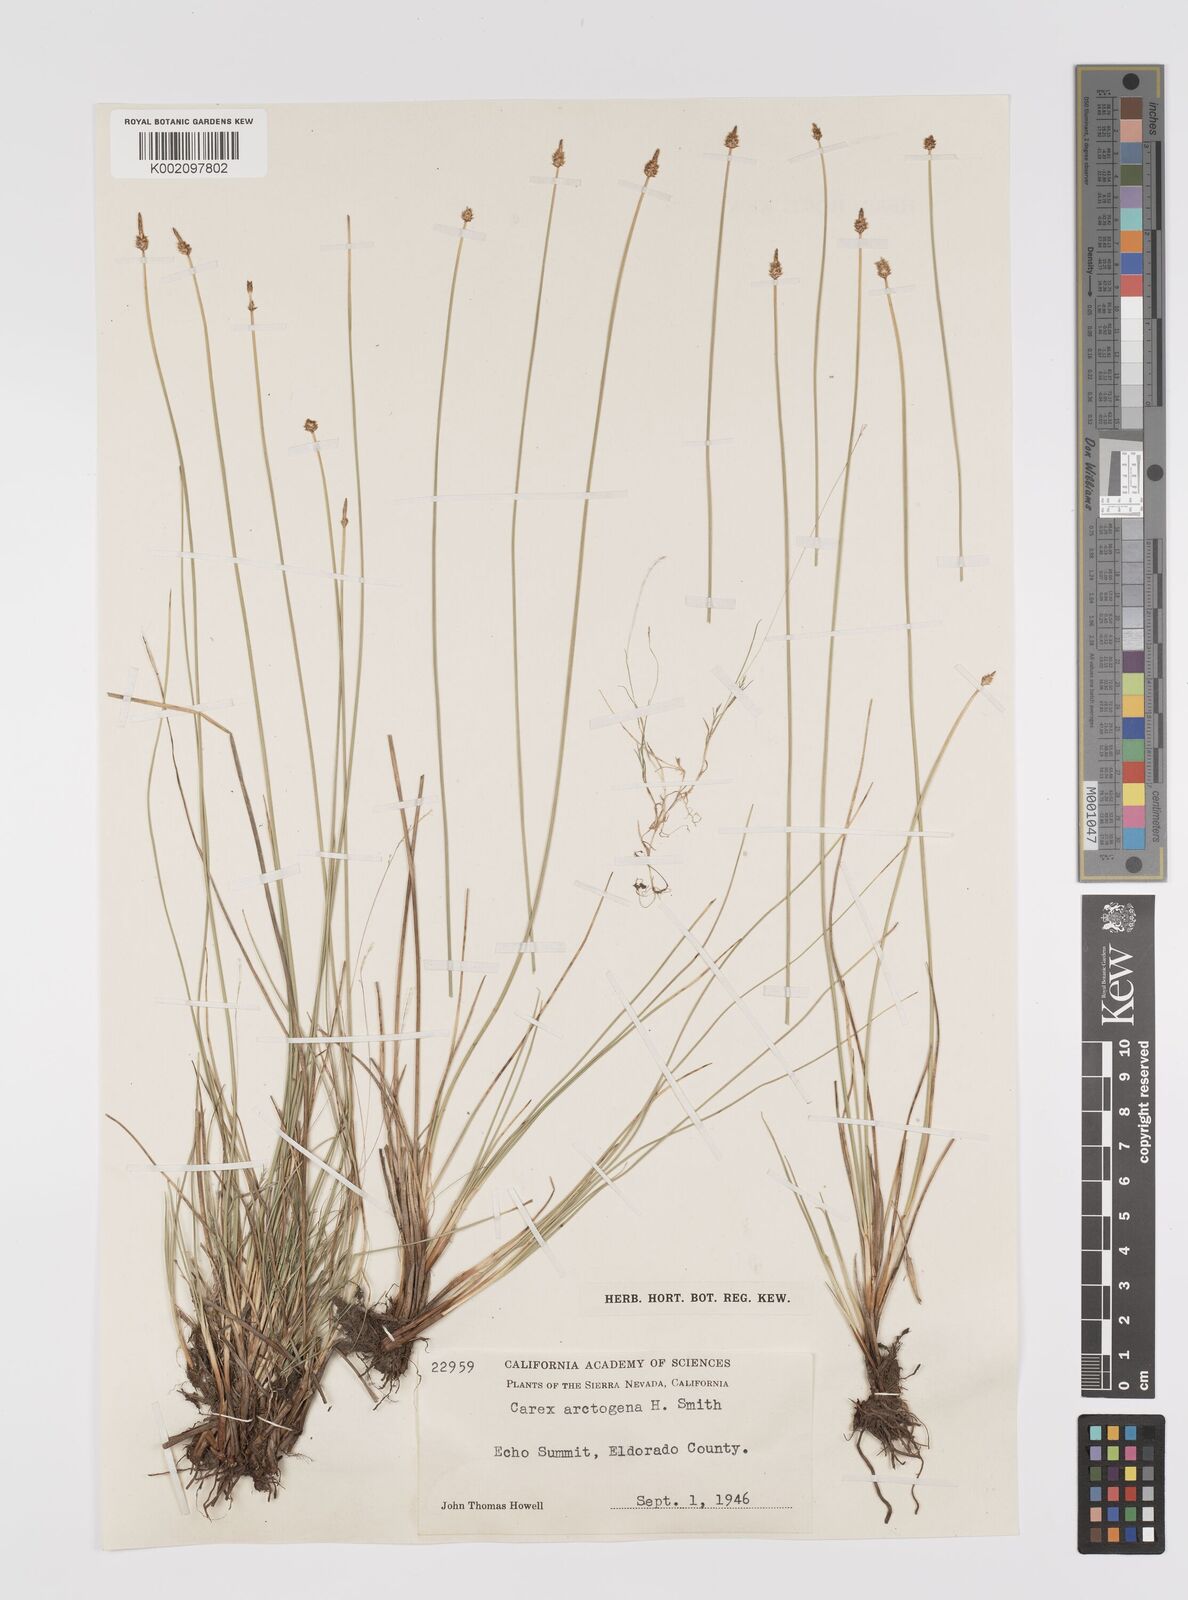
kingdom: Plantae
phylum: Tracheophyta
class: Liliopsida
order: Poales
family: Cyperaceae
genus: Carex
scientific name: Carex arctogena
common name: Black sedge
